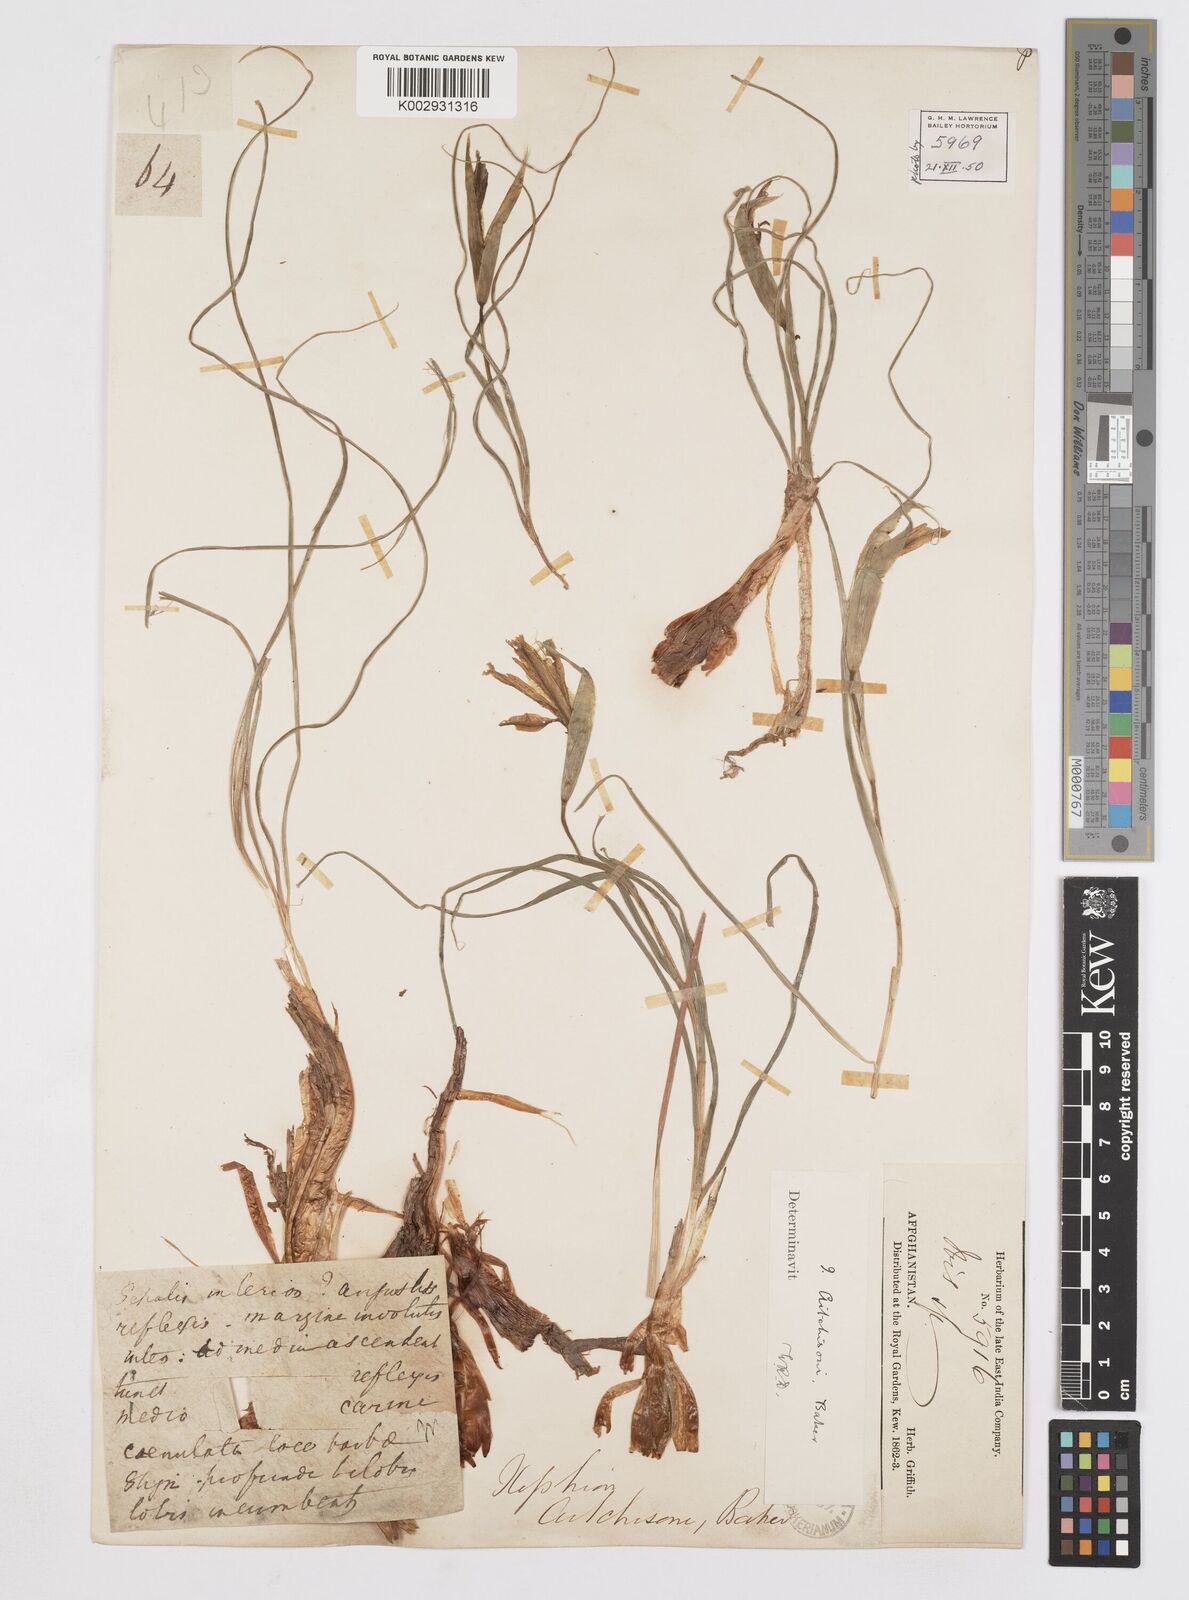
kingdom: Plantae
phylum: Tracheophyta
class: Liliopsida
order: Asparagales
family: Iridaceae
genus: Iris
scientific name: Iris aitchisonii
